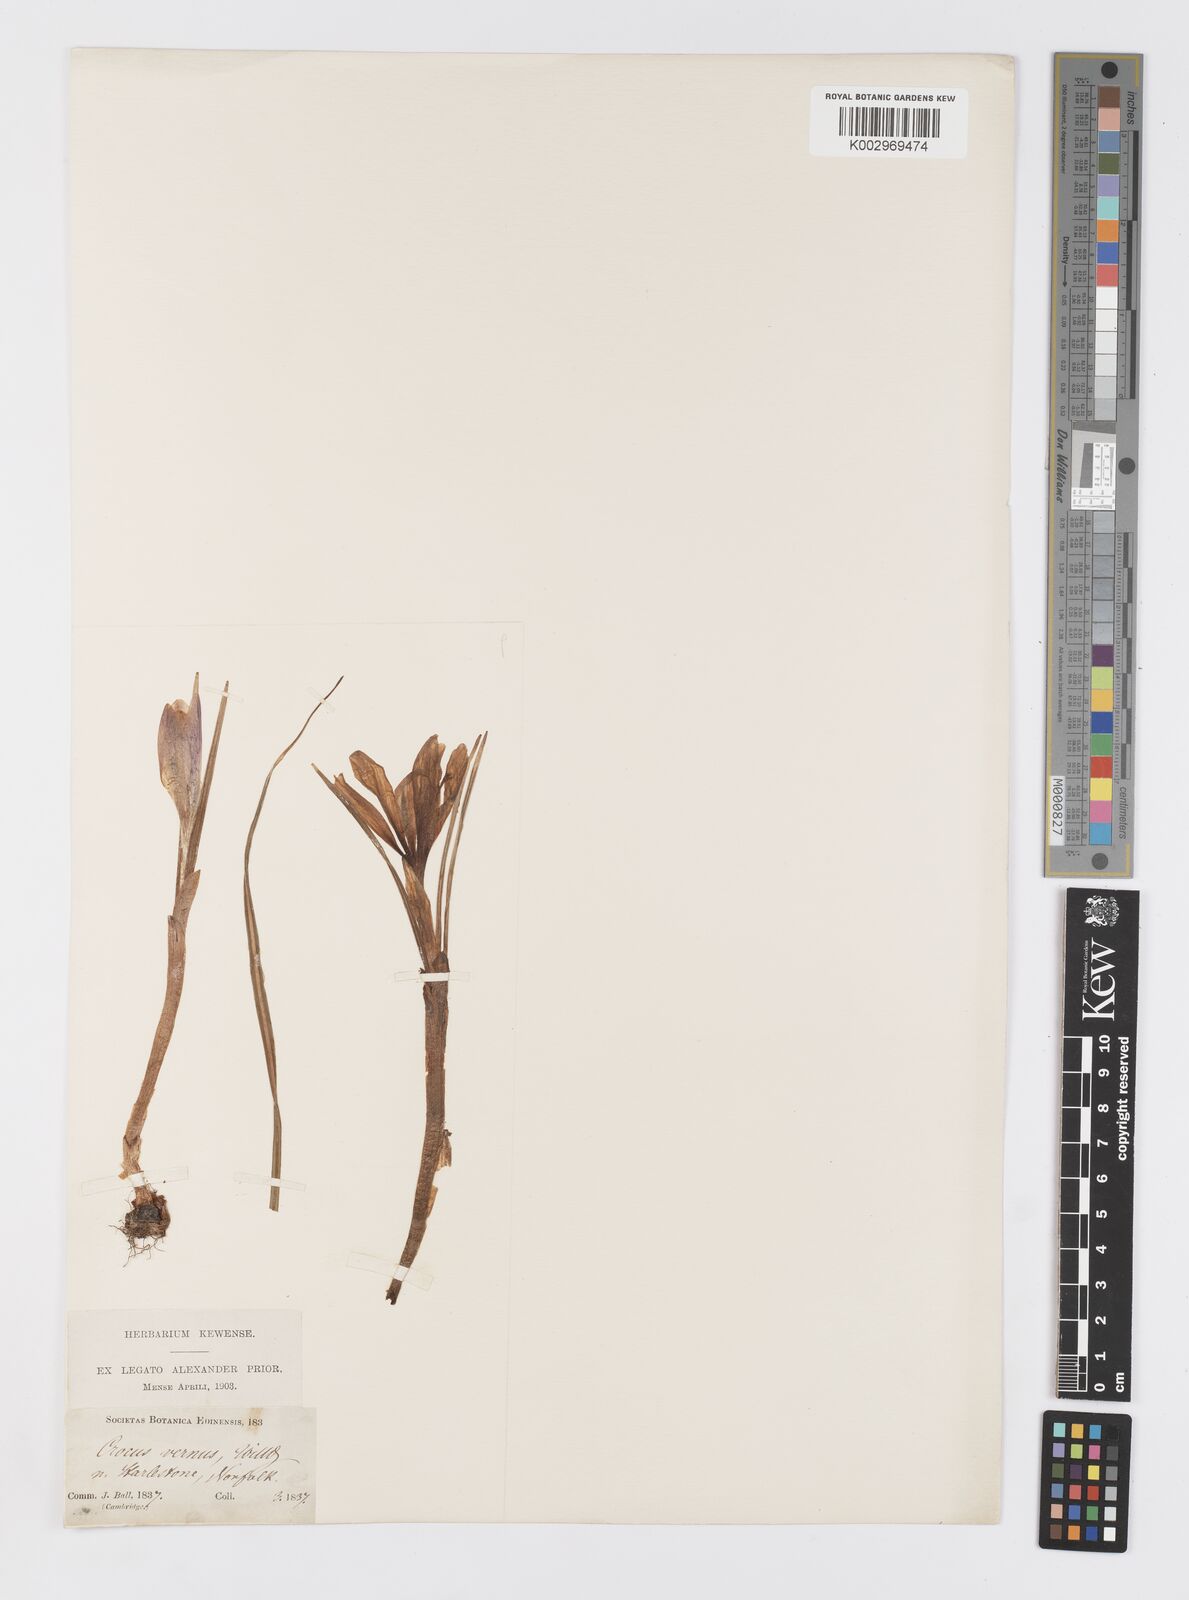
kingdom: Plantae
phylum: Tracheophyta
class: Liliopsida
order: Asparagales
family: Iridaceae
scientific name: Iridaceae
